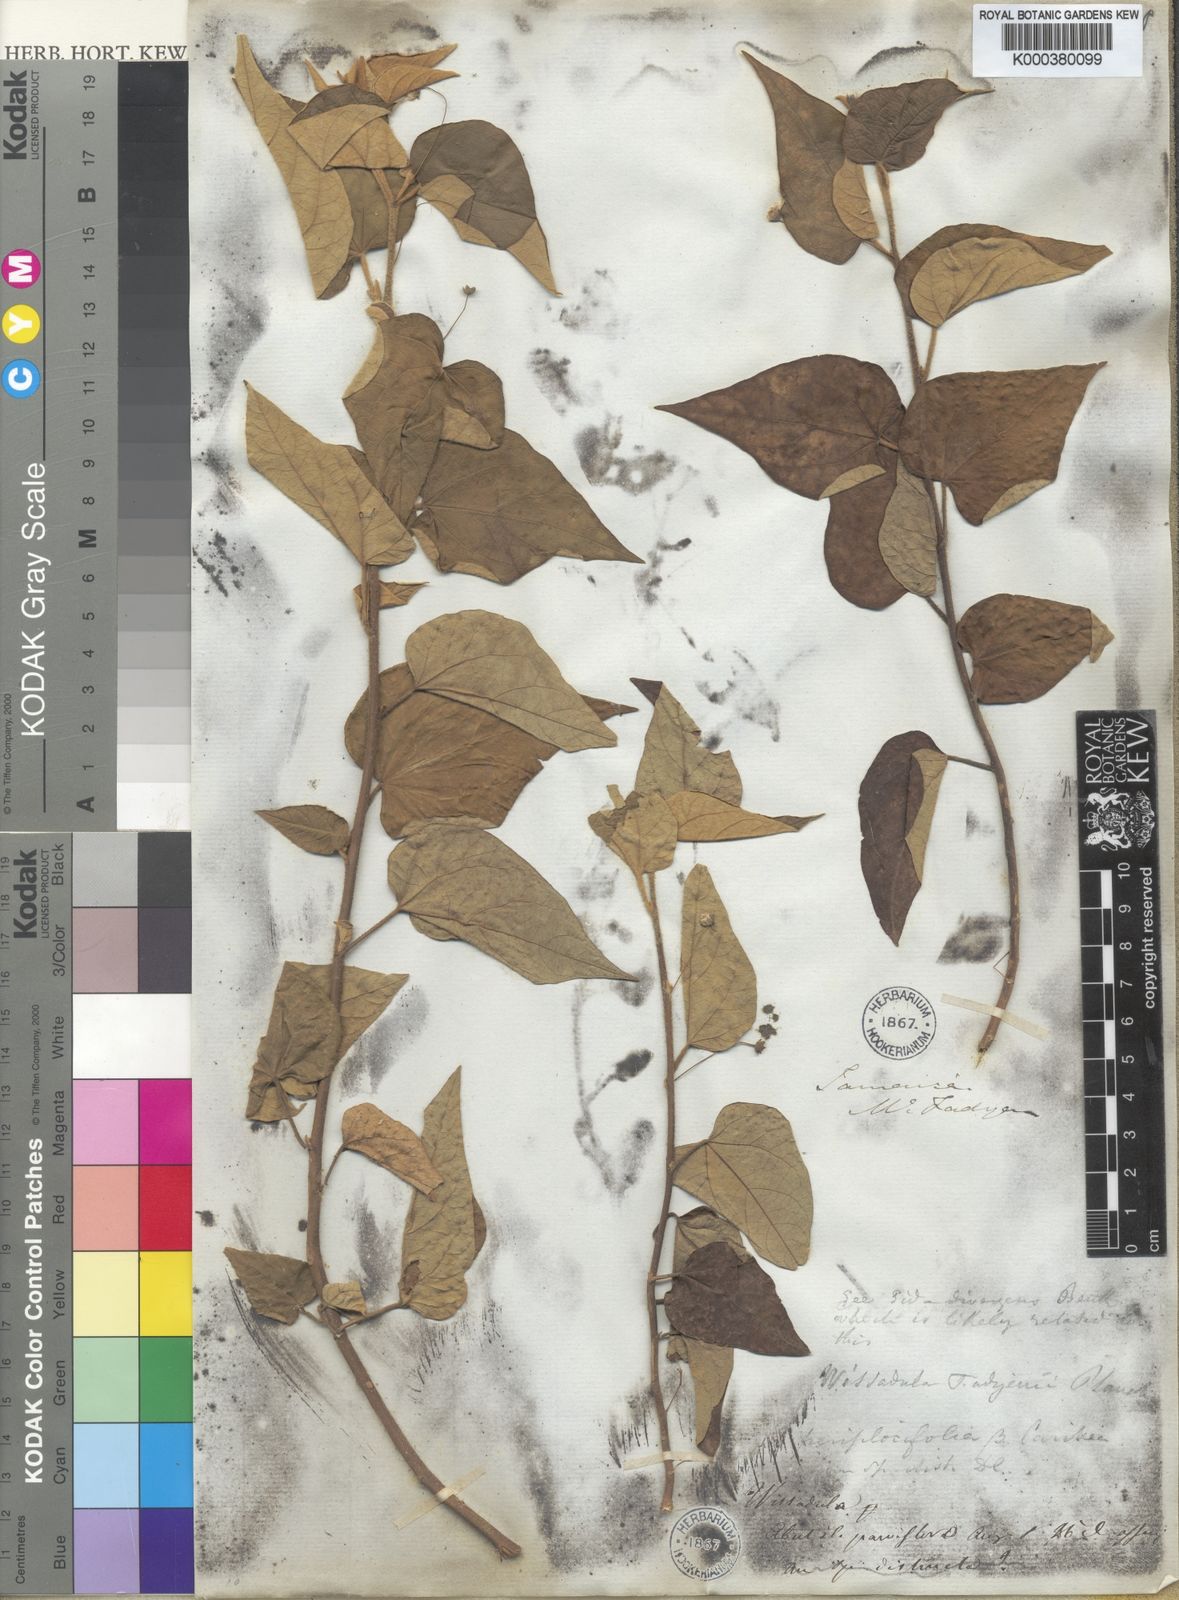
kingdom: Plantae
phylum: Tracheophyta
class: Magnoliopsida
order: Malvales
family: Malvaceae
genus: Wissadula
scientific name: Wissadula periplocifolia
